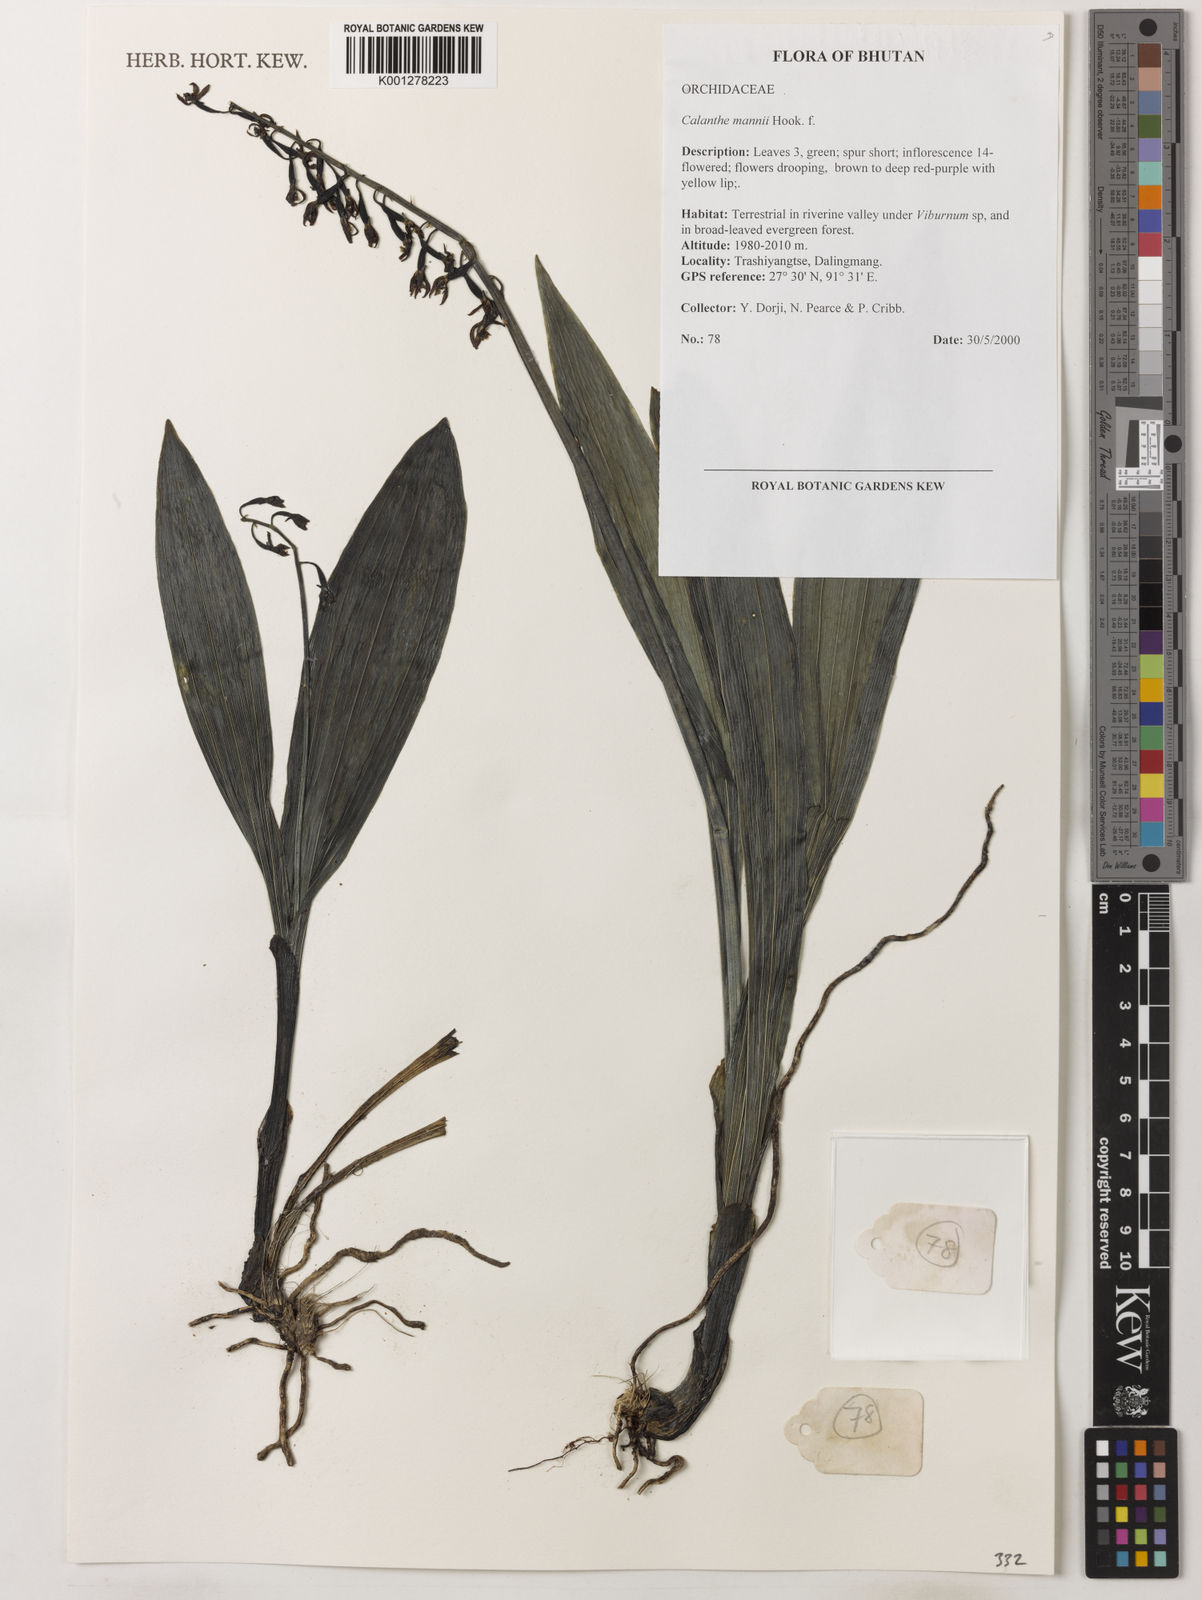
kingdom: Plantae
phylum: Tracheophyta
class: Liliopsida
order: Asparagales
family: Orchidaceae
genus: Calanthe
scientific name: Calanthe mannii
